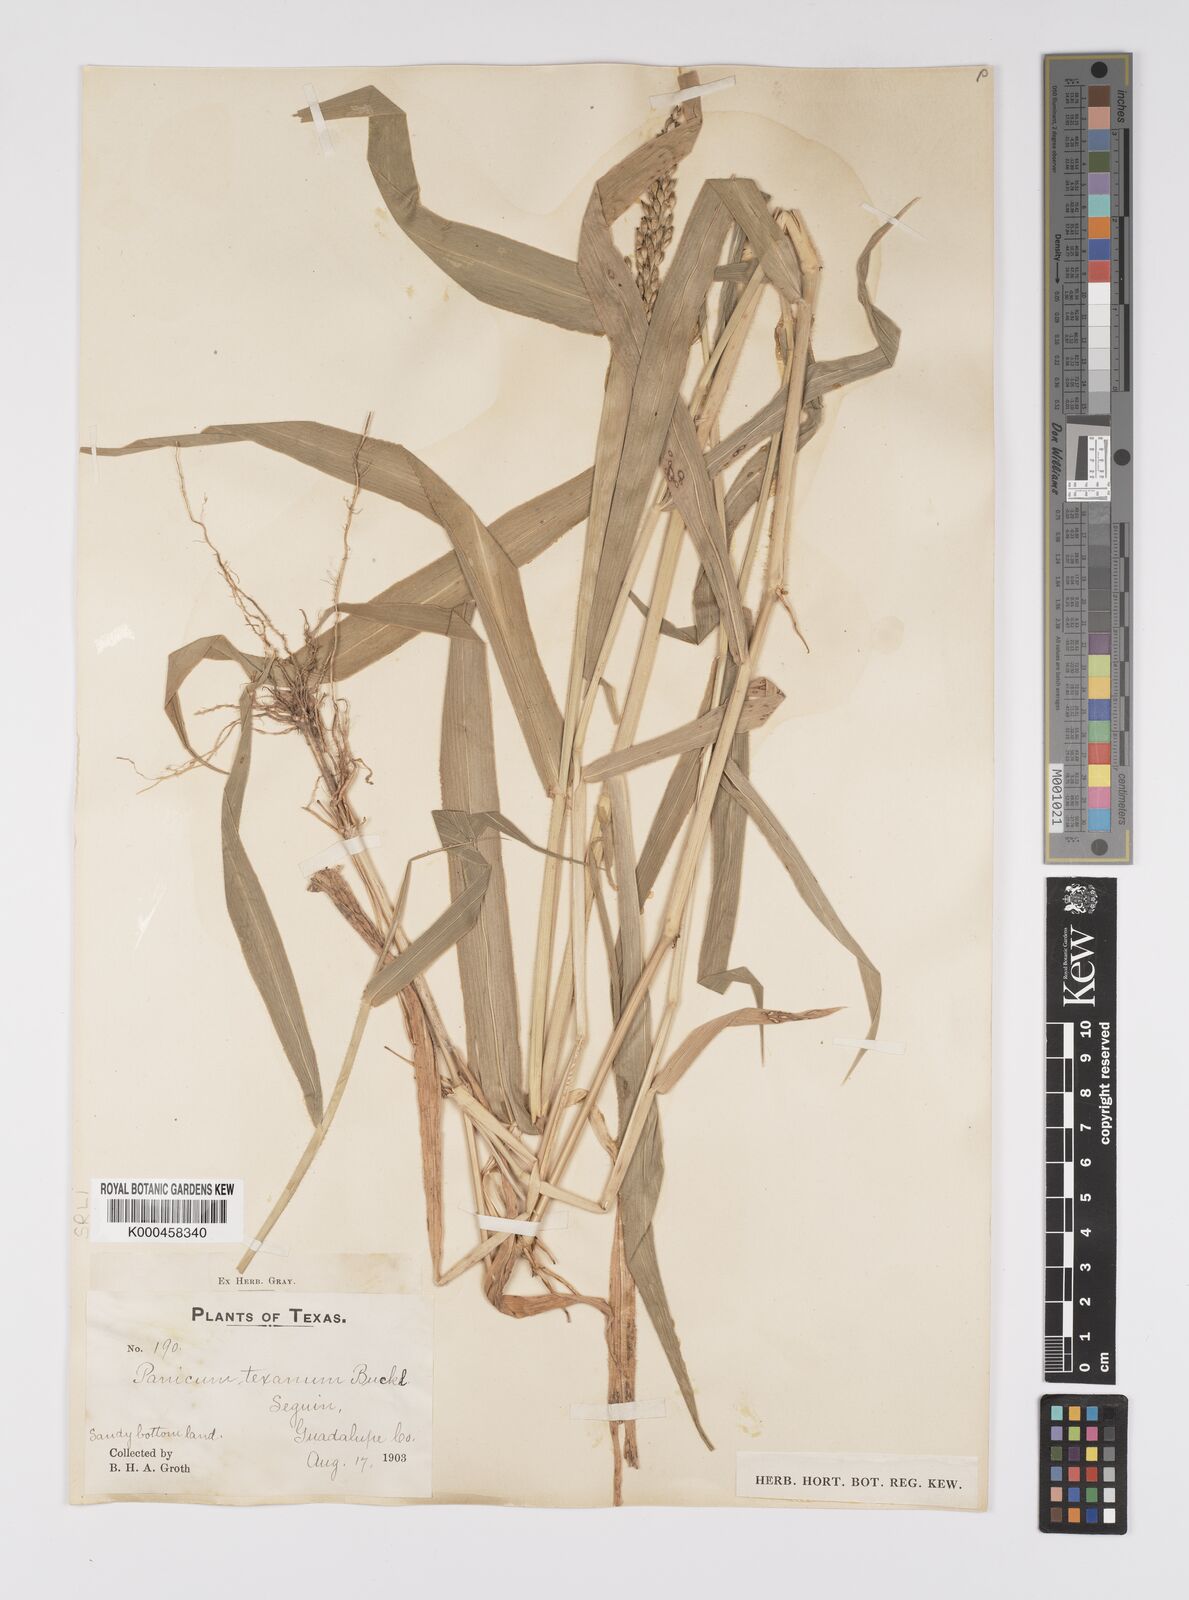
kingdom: Plantae
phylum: Tracheophyta
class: Liliopsida
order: Poales
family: Poaceae
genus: Urochloa
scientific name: Urochloa texana
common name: Texas millet
